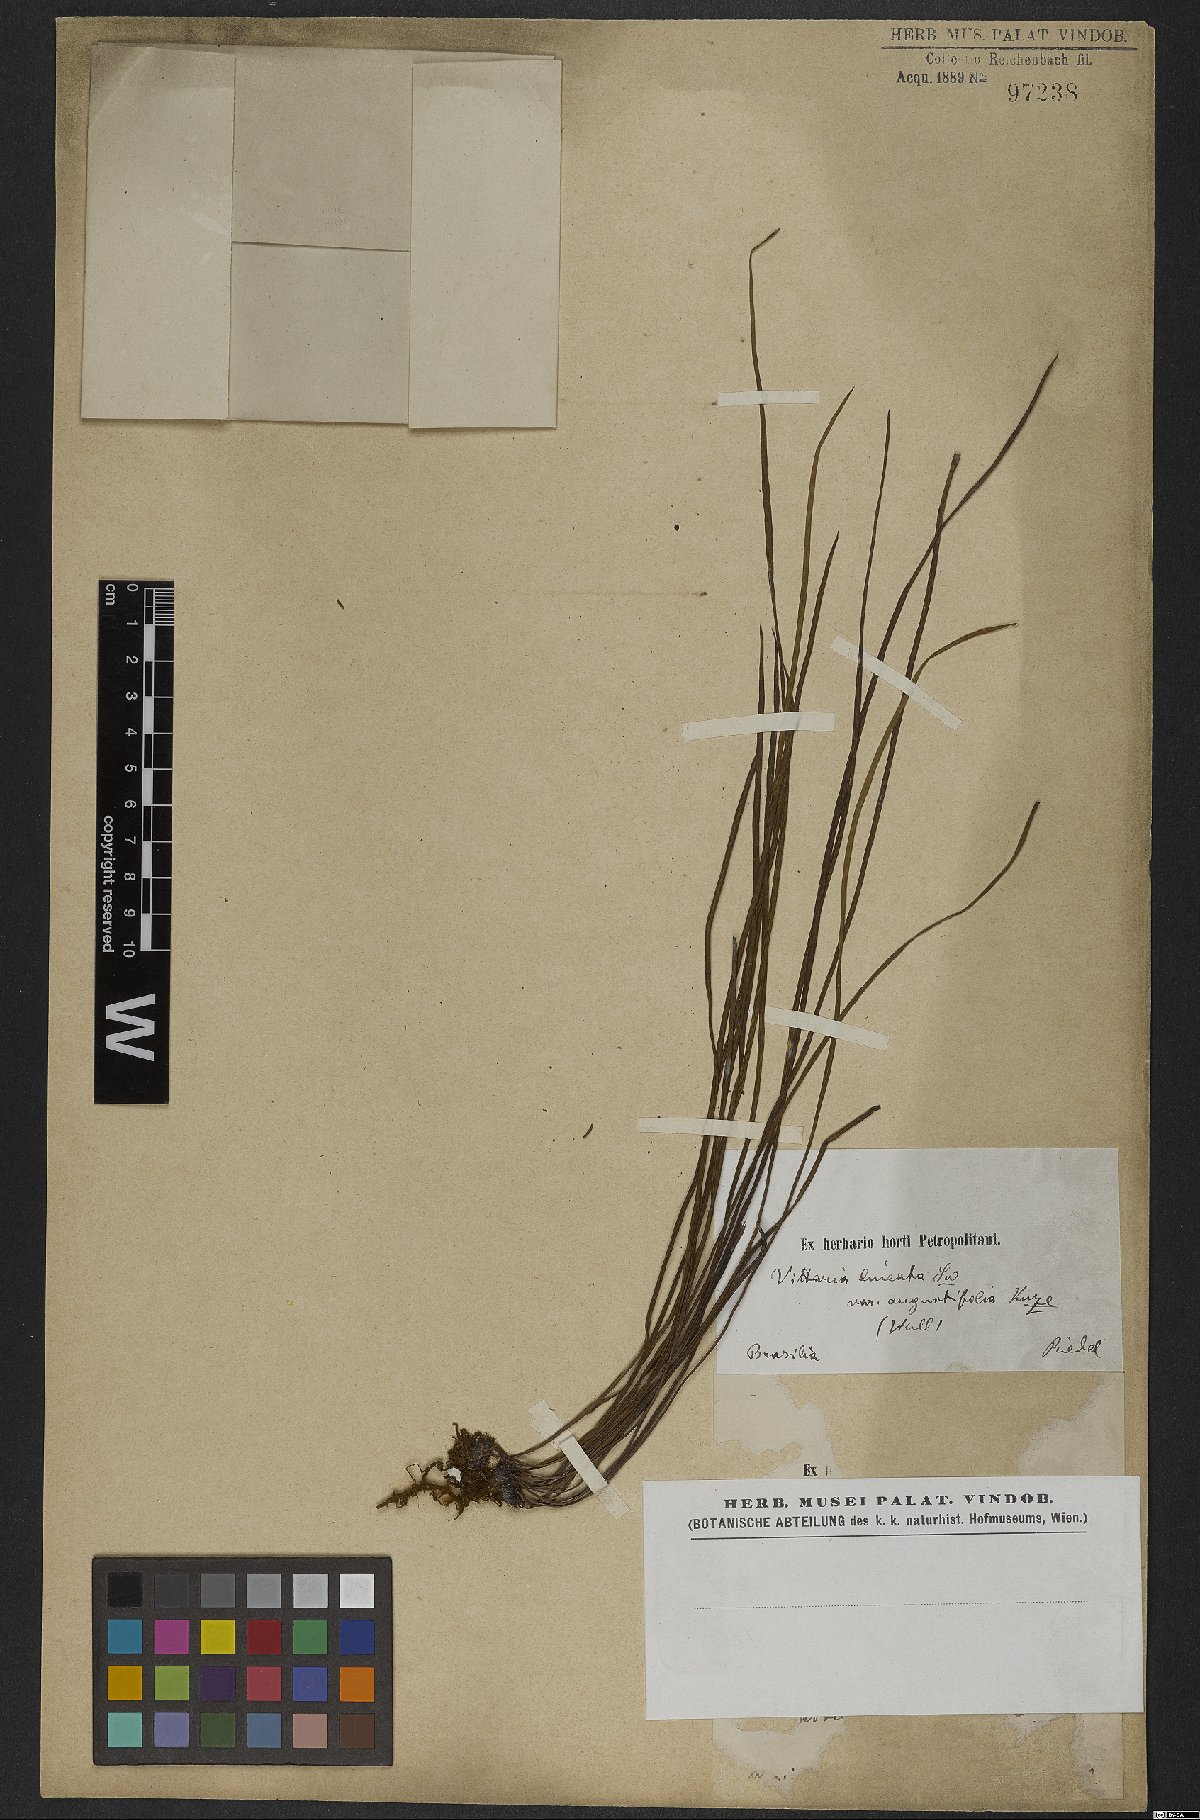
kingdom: Plantae
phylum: Tracheophyta
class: Polypodiopsida
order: Polypodiales
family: Pteridaceae
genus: Vittaria
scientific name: Vittaria lineata
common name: Shoestring fern
